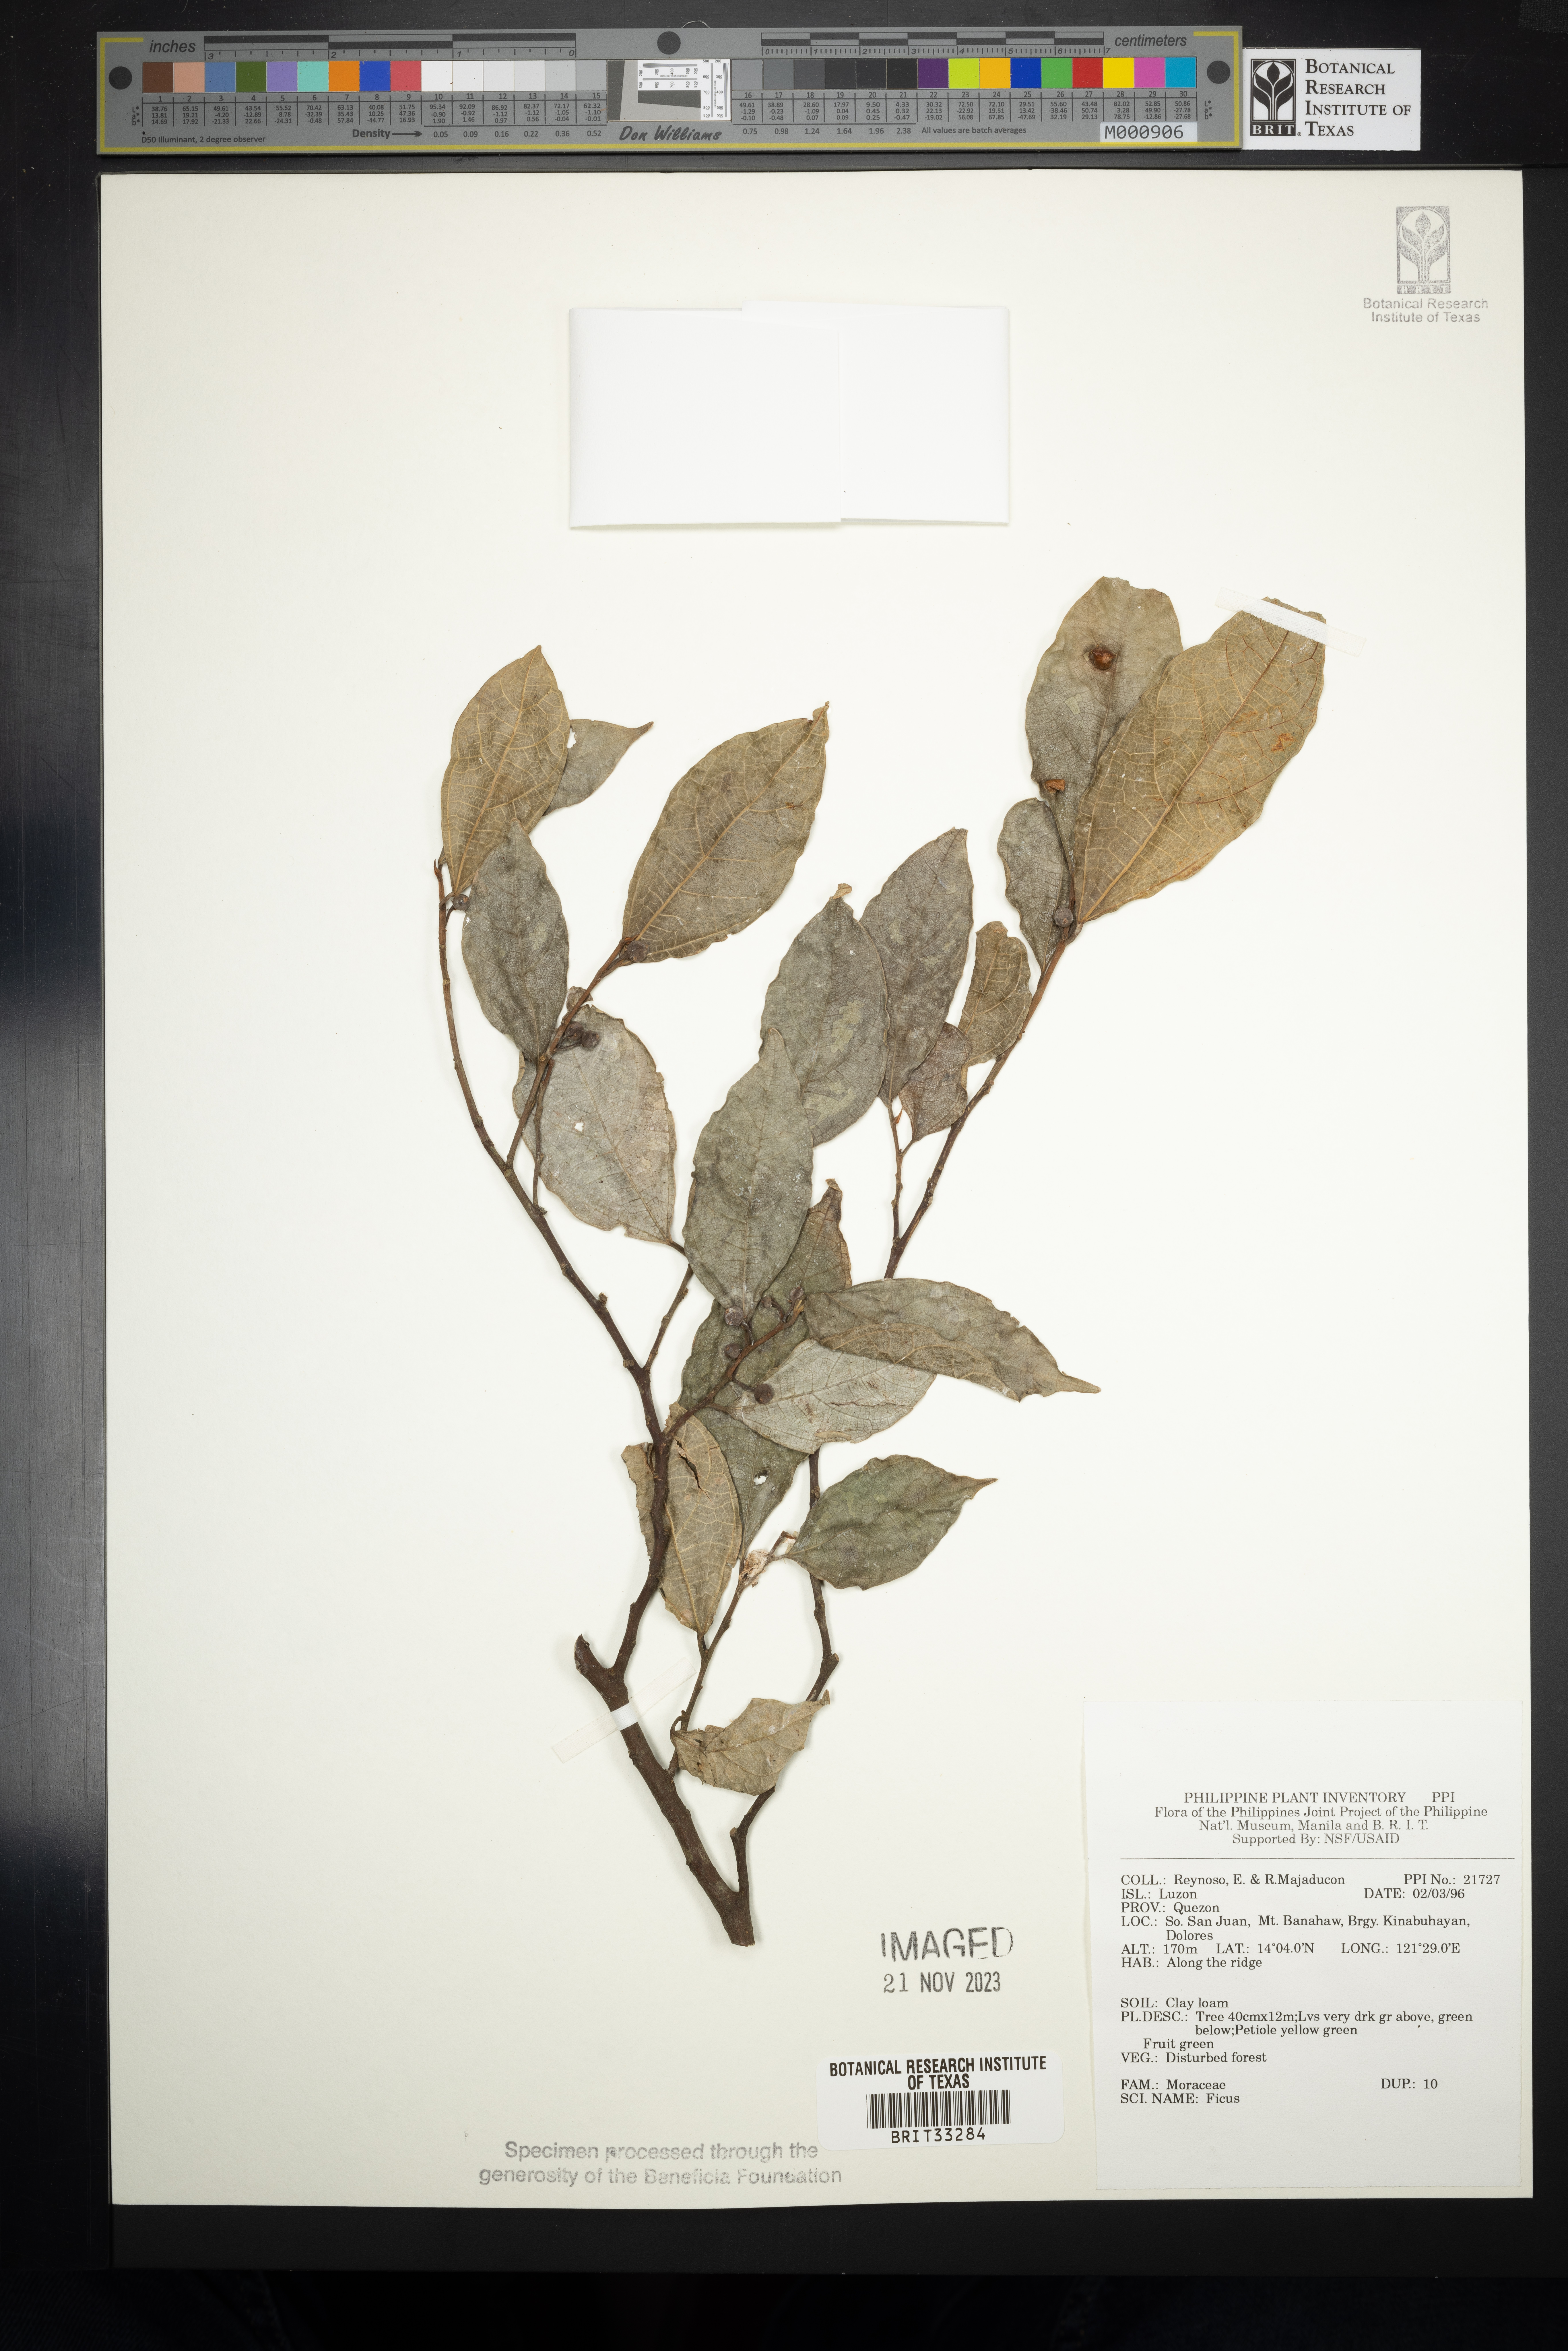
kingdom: Plantae
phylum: Tracheophyta
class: Magnoliopsida
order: Rosales
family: Moraceae
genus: Ficus
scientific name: Ficus
